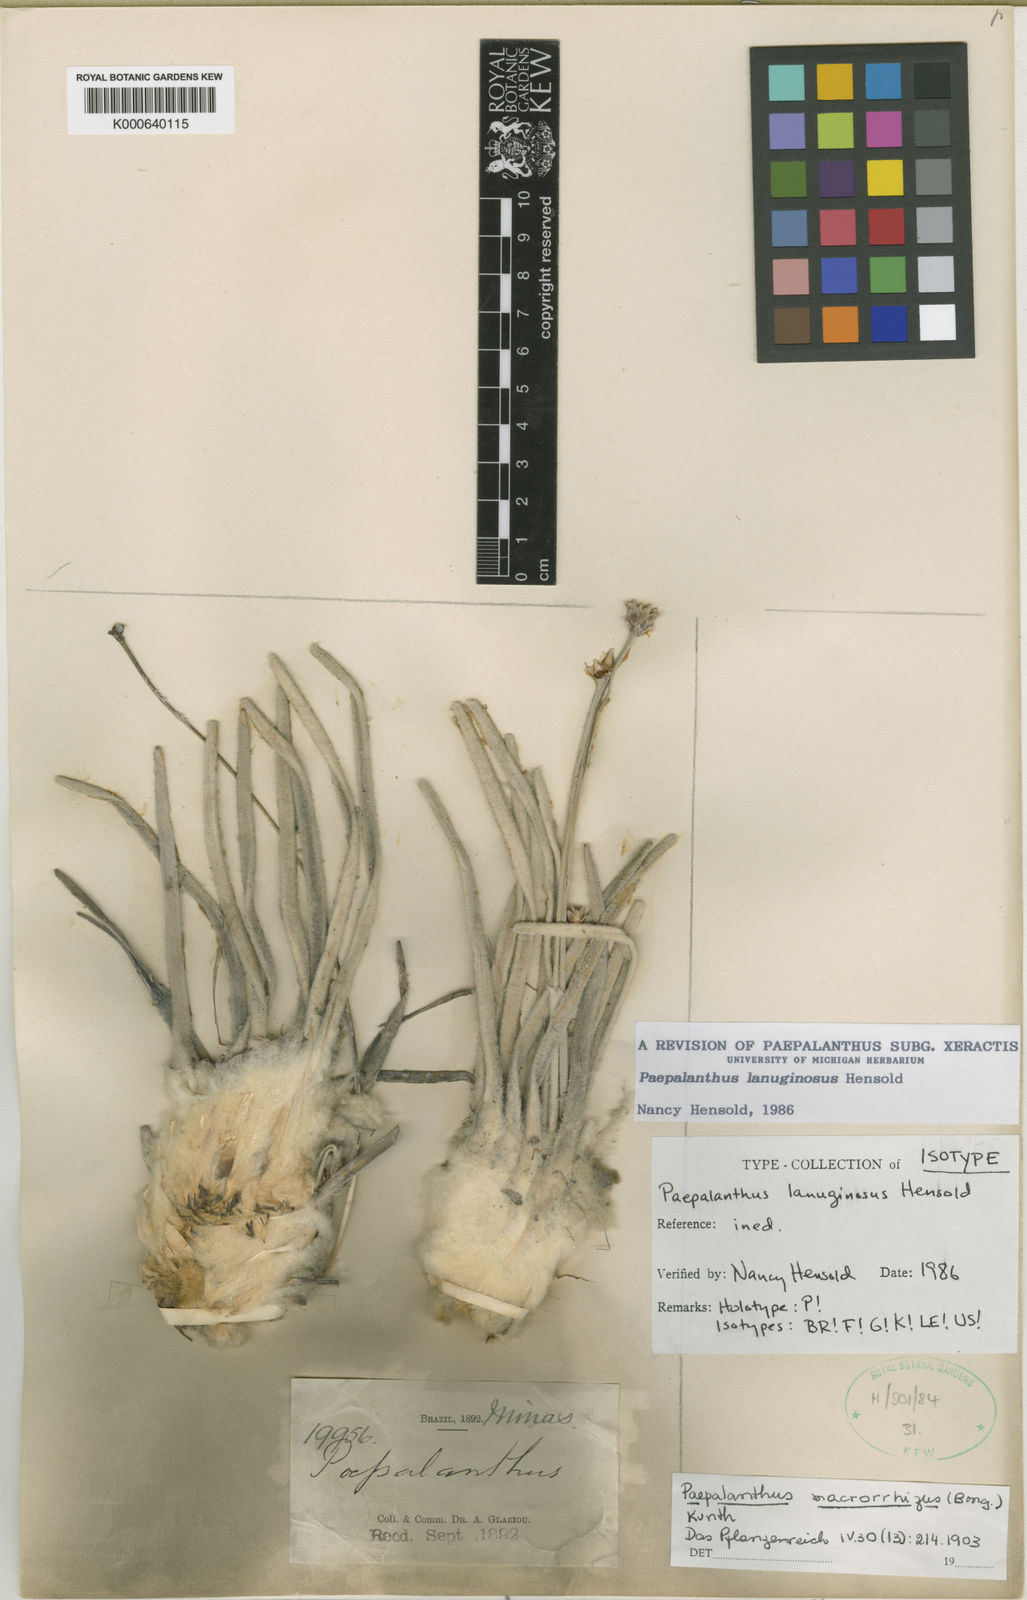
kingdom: Plantae
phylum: Tracheophyta
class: Liliopsida
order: Poales
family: Eriocaulaceae
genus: Paepalanthus
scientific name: Paepalanthus stuetzelii
